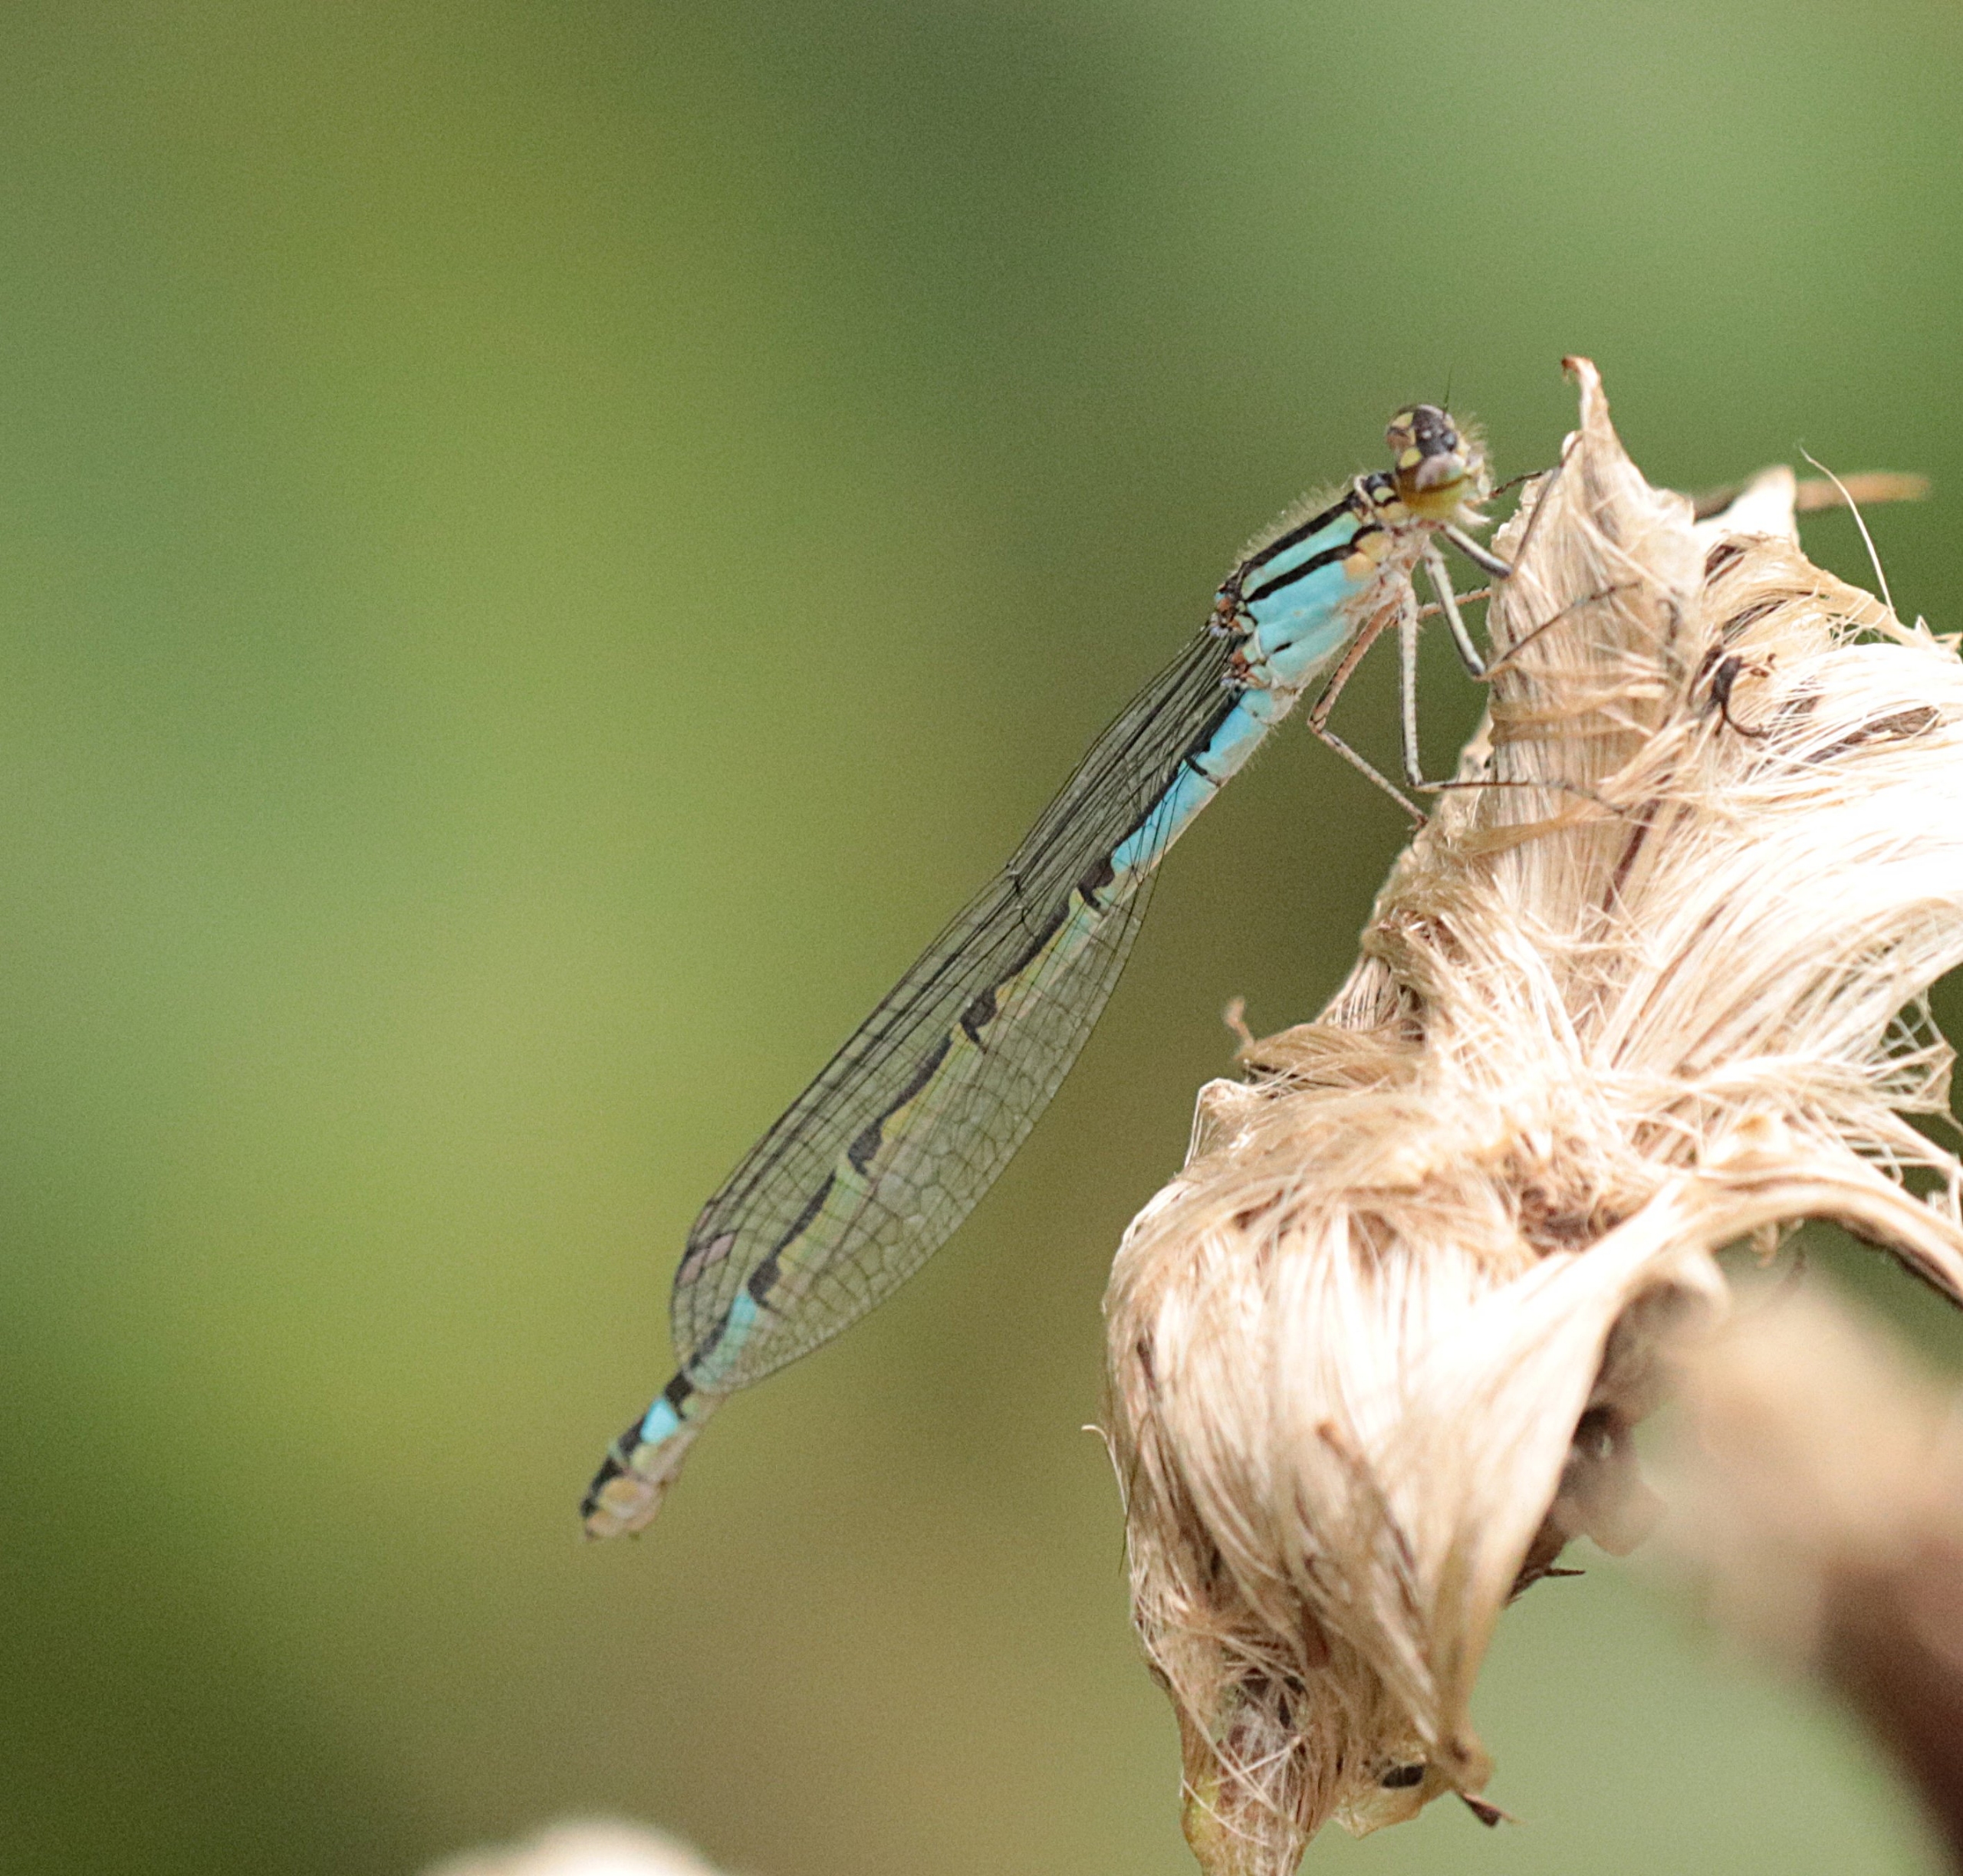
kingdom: Animalia
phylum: Arthropoda
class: Insecta
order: Odonata
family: Coenagrionidae
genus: Enallagma
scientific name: Enallagma cyathigerum
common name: Almindelig vandnymfe
